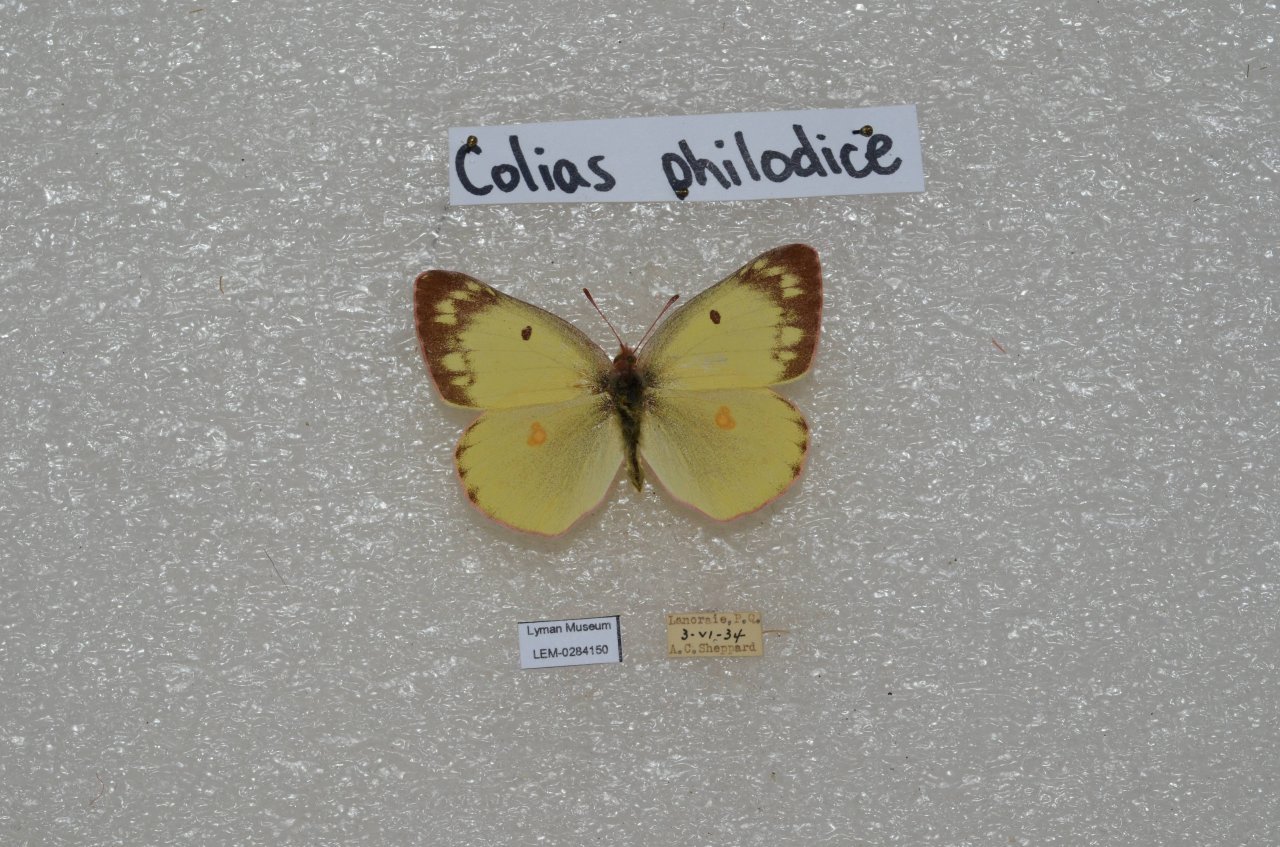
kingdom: Animalia
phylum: Arthropoda
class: Insecta
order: Lepidoptera
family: Pieridae
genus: Colias
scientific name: Colias philodice
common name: Clouded Sulphur
